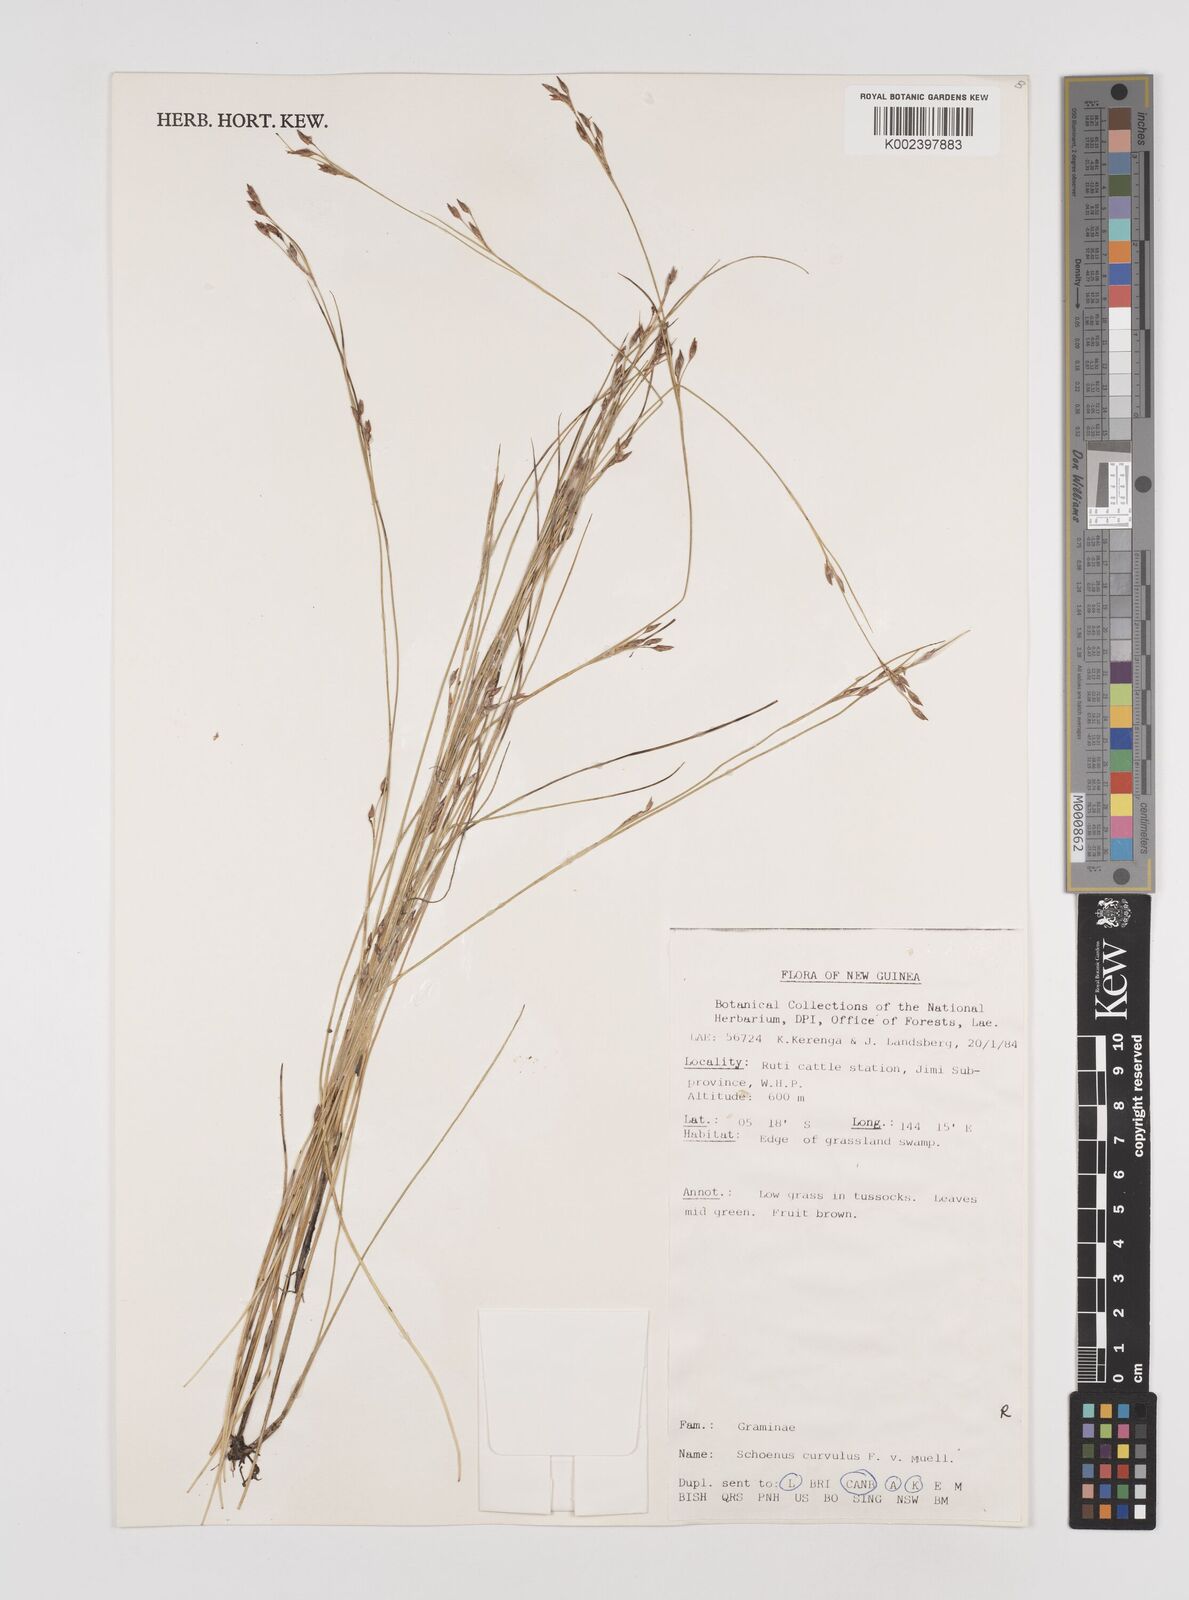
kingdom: Plantae
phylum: Tracheophyta
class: Liliopsida
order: Poales
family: Cyperaceae
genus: Schoenus
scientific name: Schoenus curvulus
